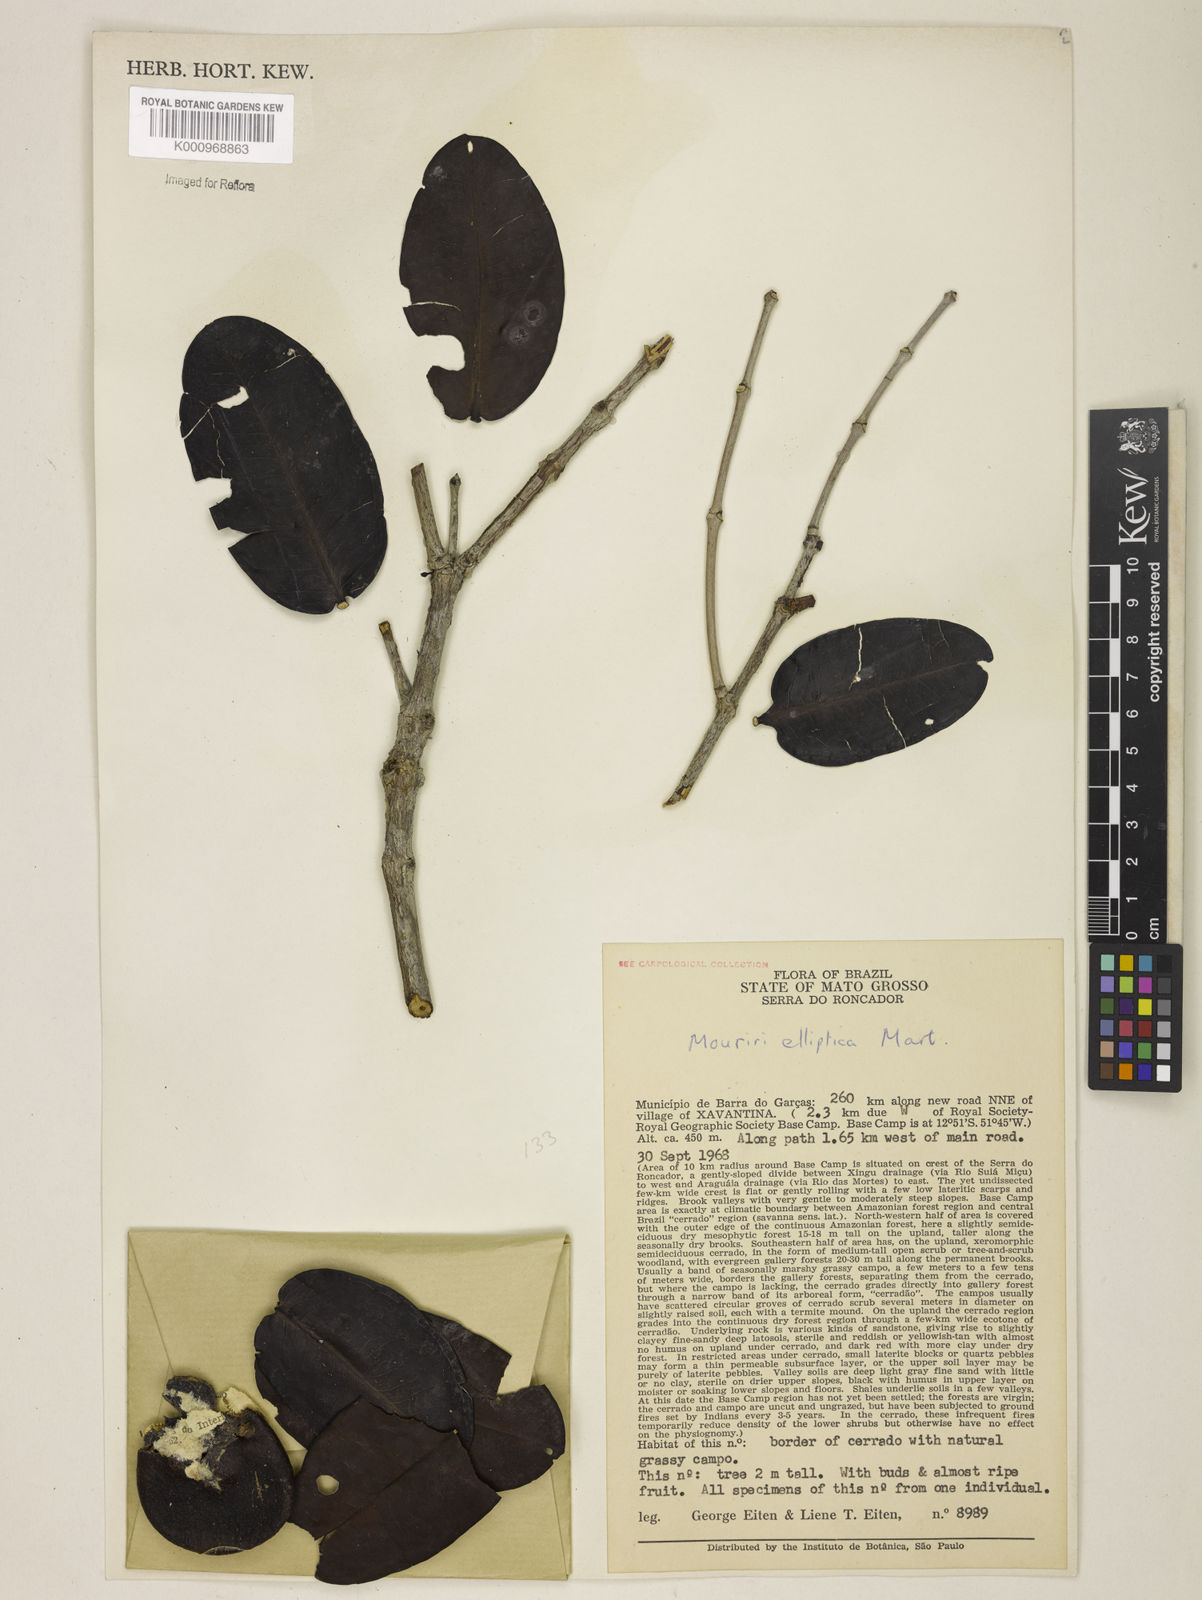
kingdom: Plantae
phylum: Tracheophyta
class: Magnoliopsida
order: Myrtales
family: Melastomataceae
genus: Mouriri
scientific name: Mouriri elliptica
